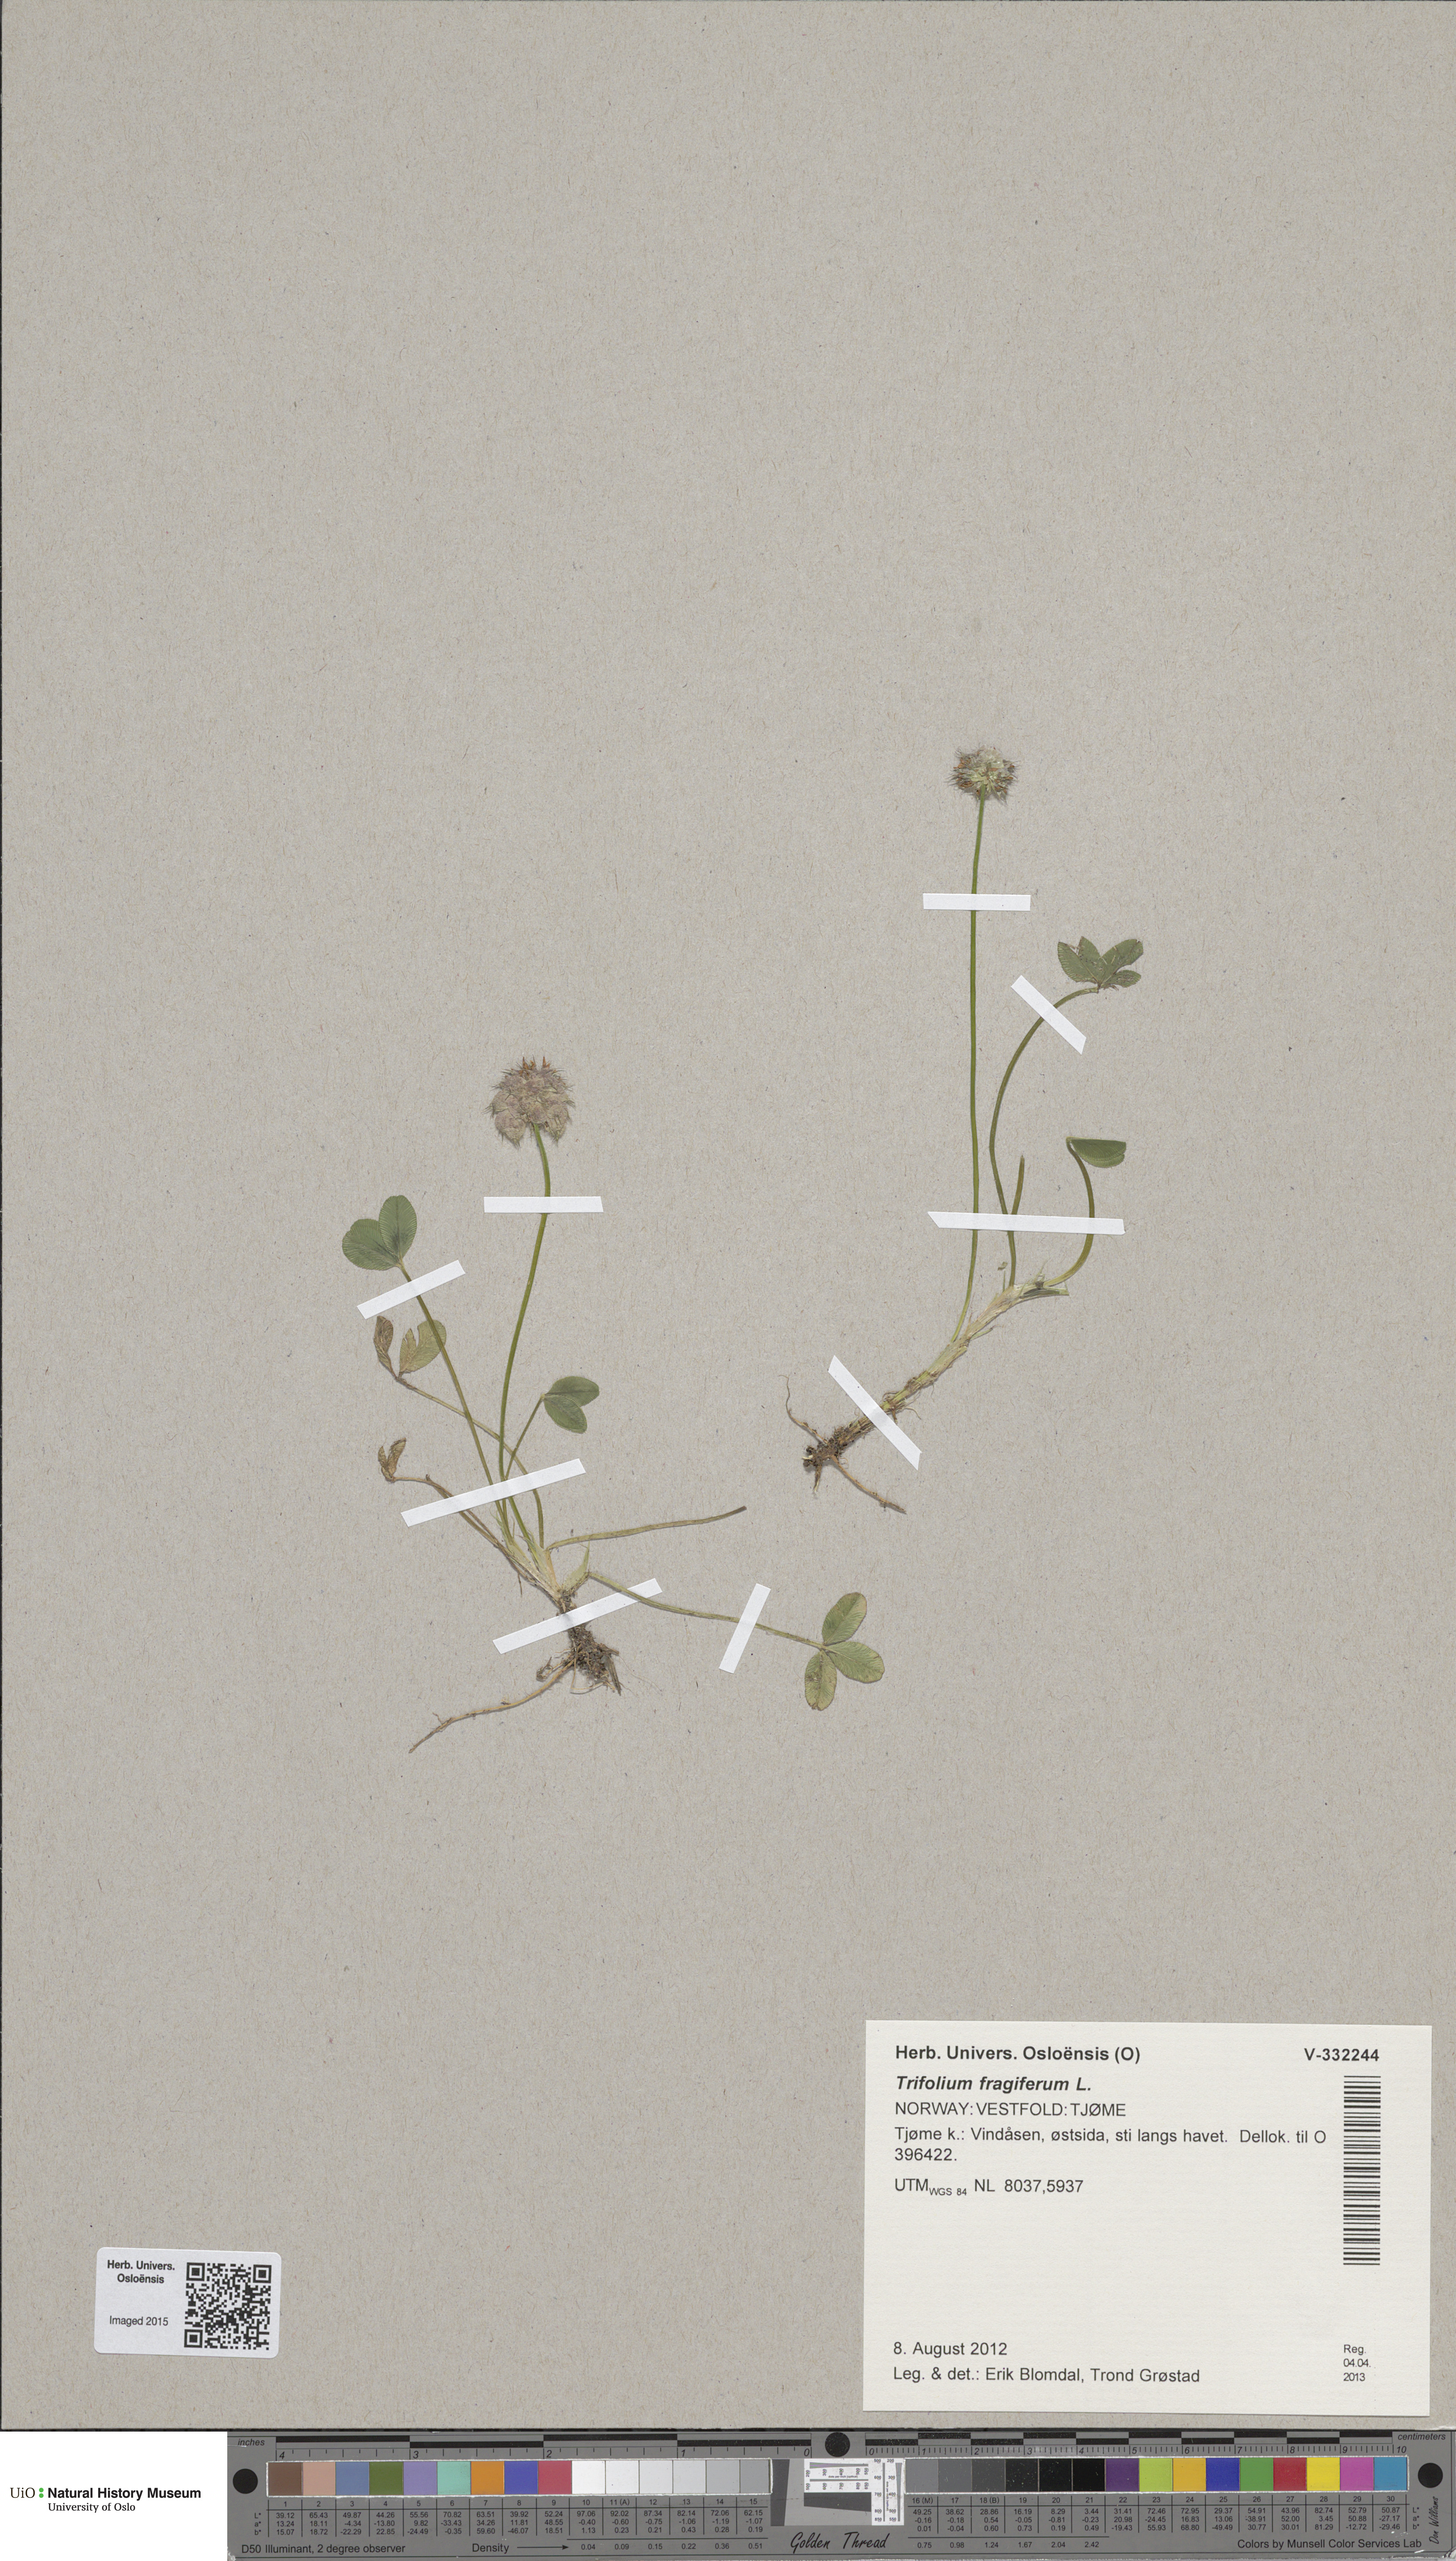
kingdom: Plantae
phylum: Tracheophyta
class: Magnoliopsida
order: Fabales
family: Fabaceae
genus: Trifolium
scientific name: Trifolium fragiferum
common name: Strawberry clover
